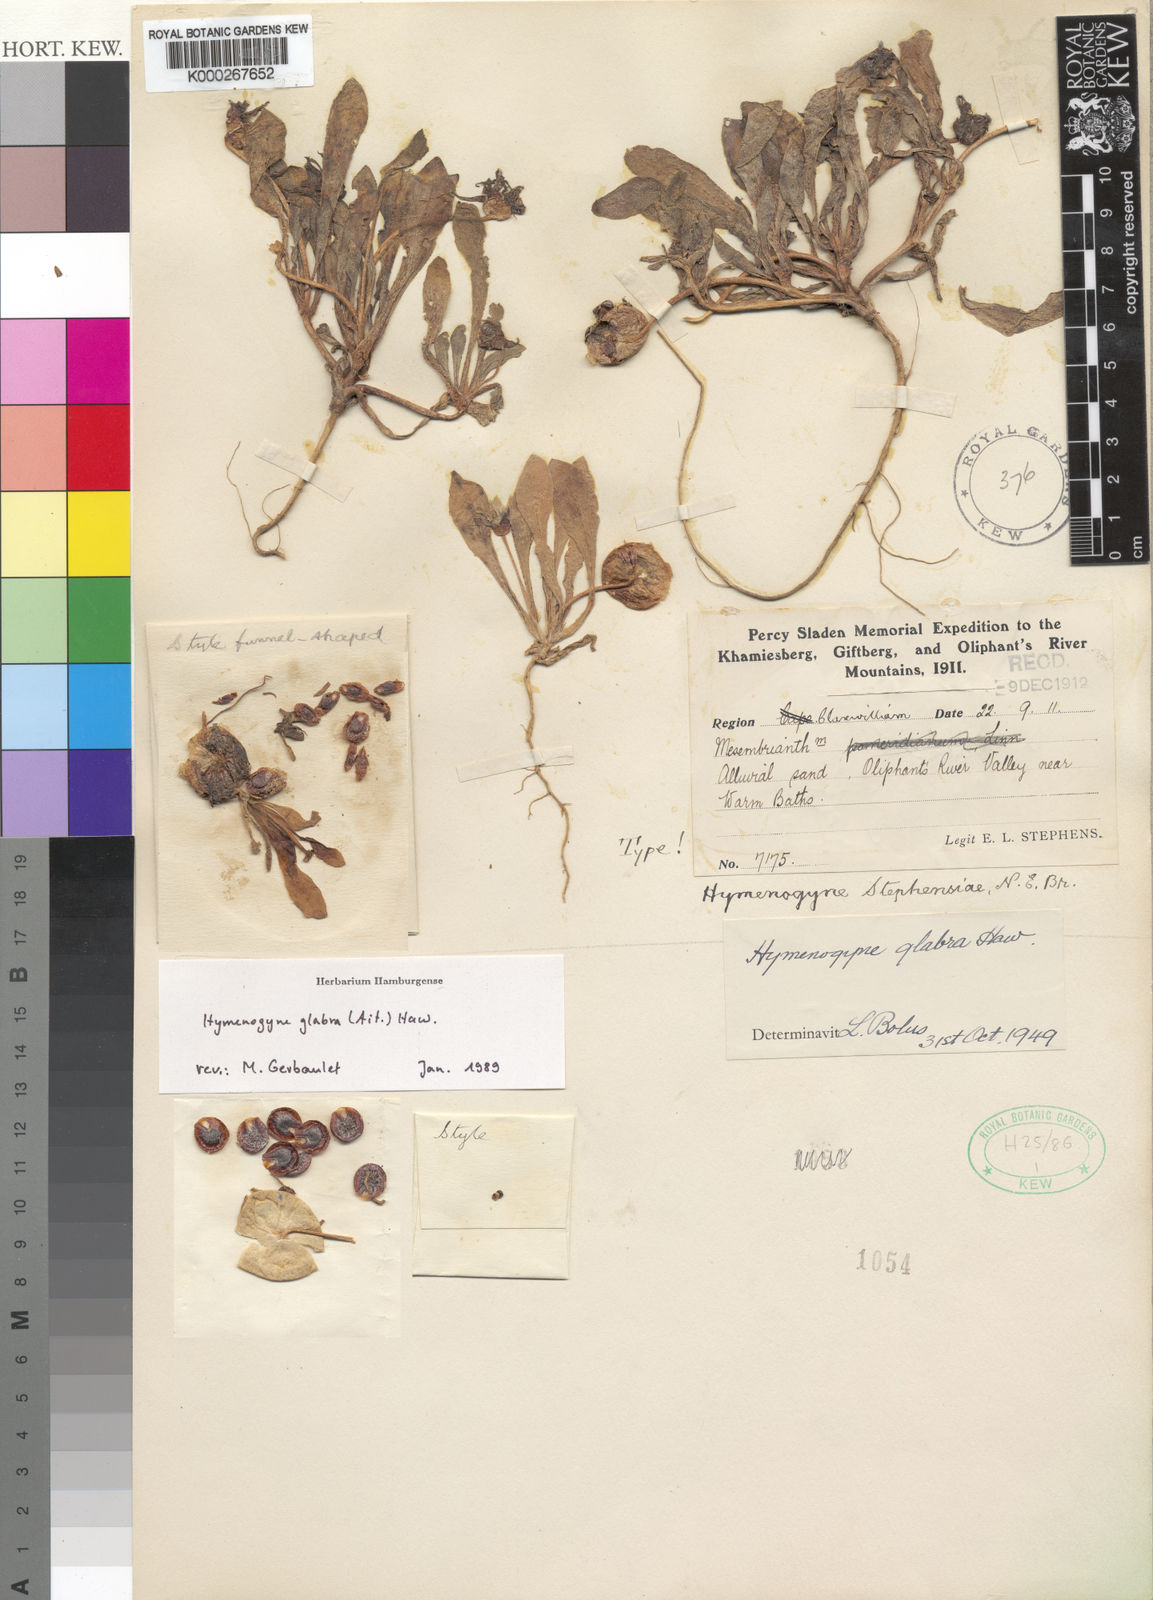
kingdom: Plantae
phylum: Tracheophyta
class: Magnoliopsida
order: Caryophyllales
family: Aizoaceae
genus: Hymenogyne
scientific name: Hymenogyne glabra
